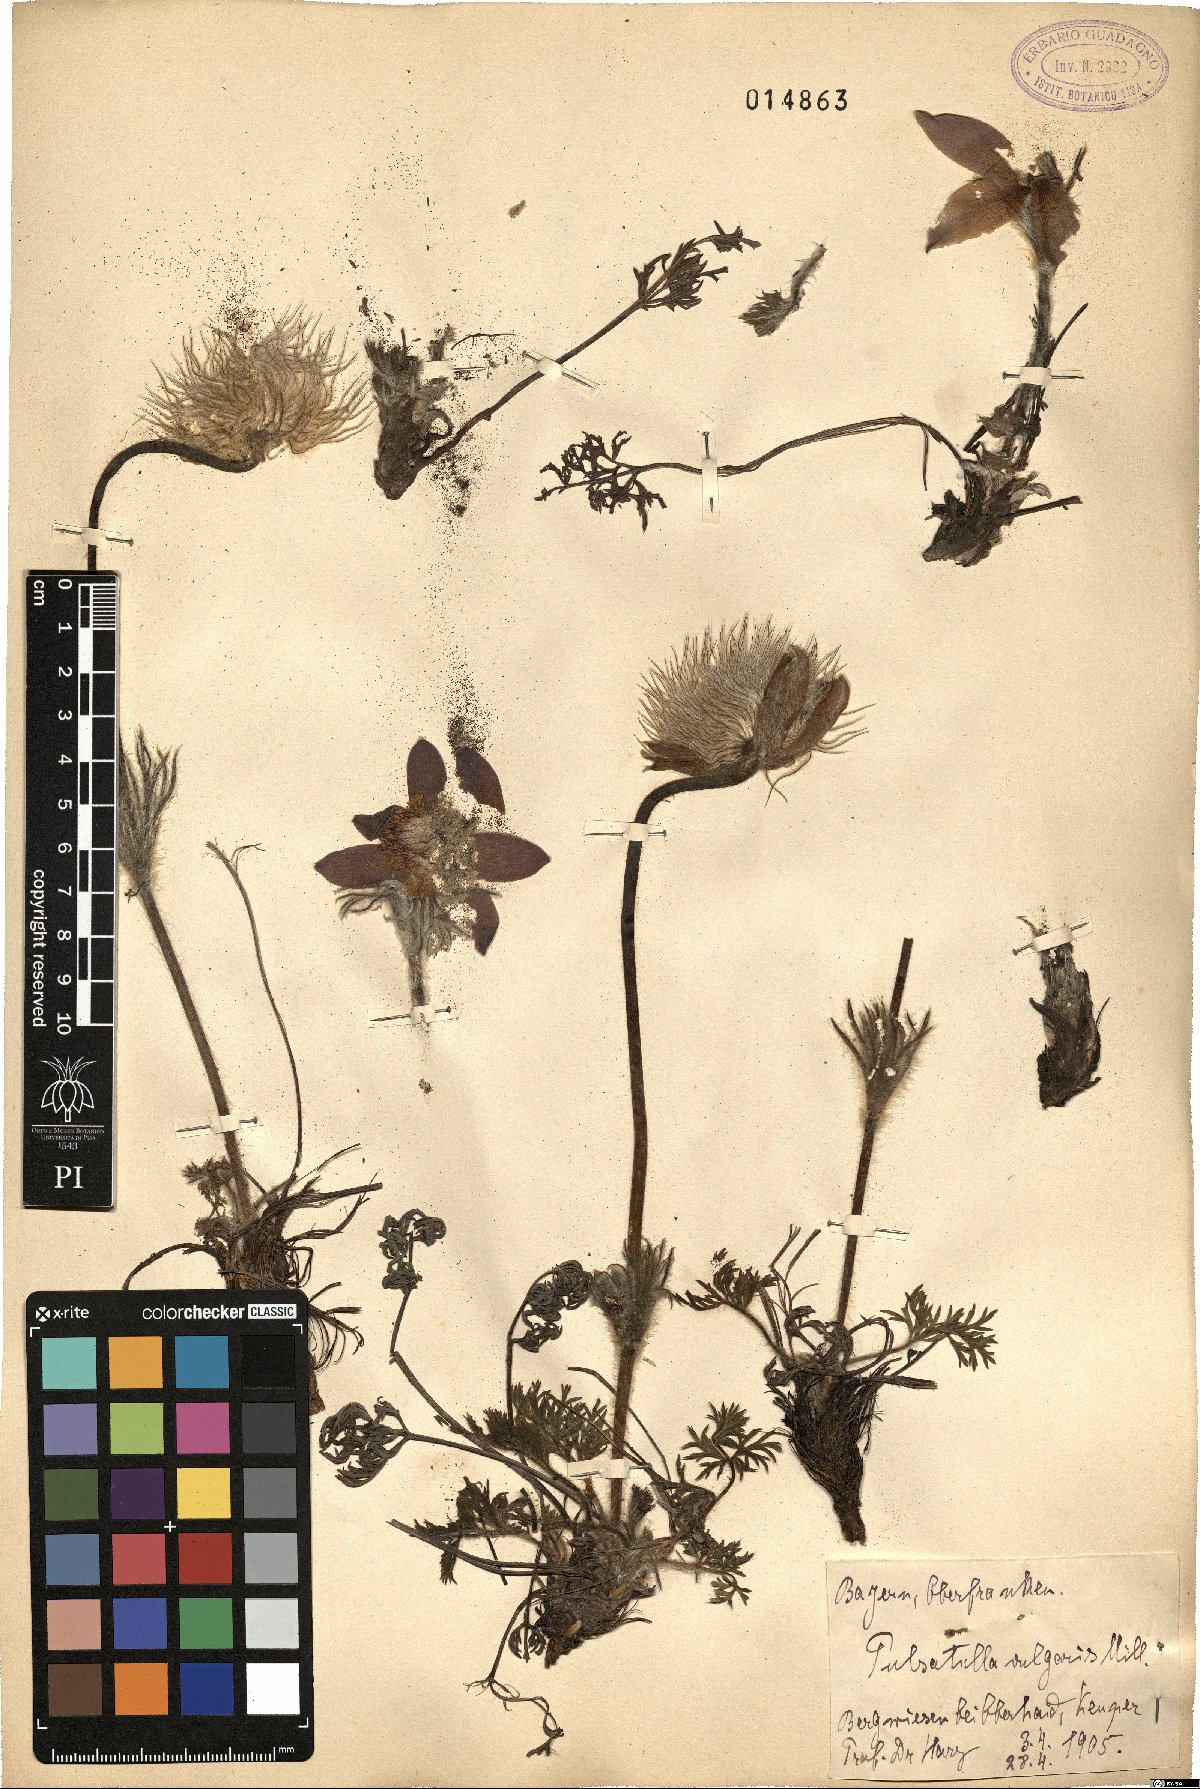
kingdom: Plantae
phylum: Tracheophyta
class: Magnoliopsida
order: Ranunculales
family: Ranunculaceae
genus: Pulsatilla
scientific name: Pulsatilla vulgaris
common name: Pasqueflower
